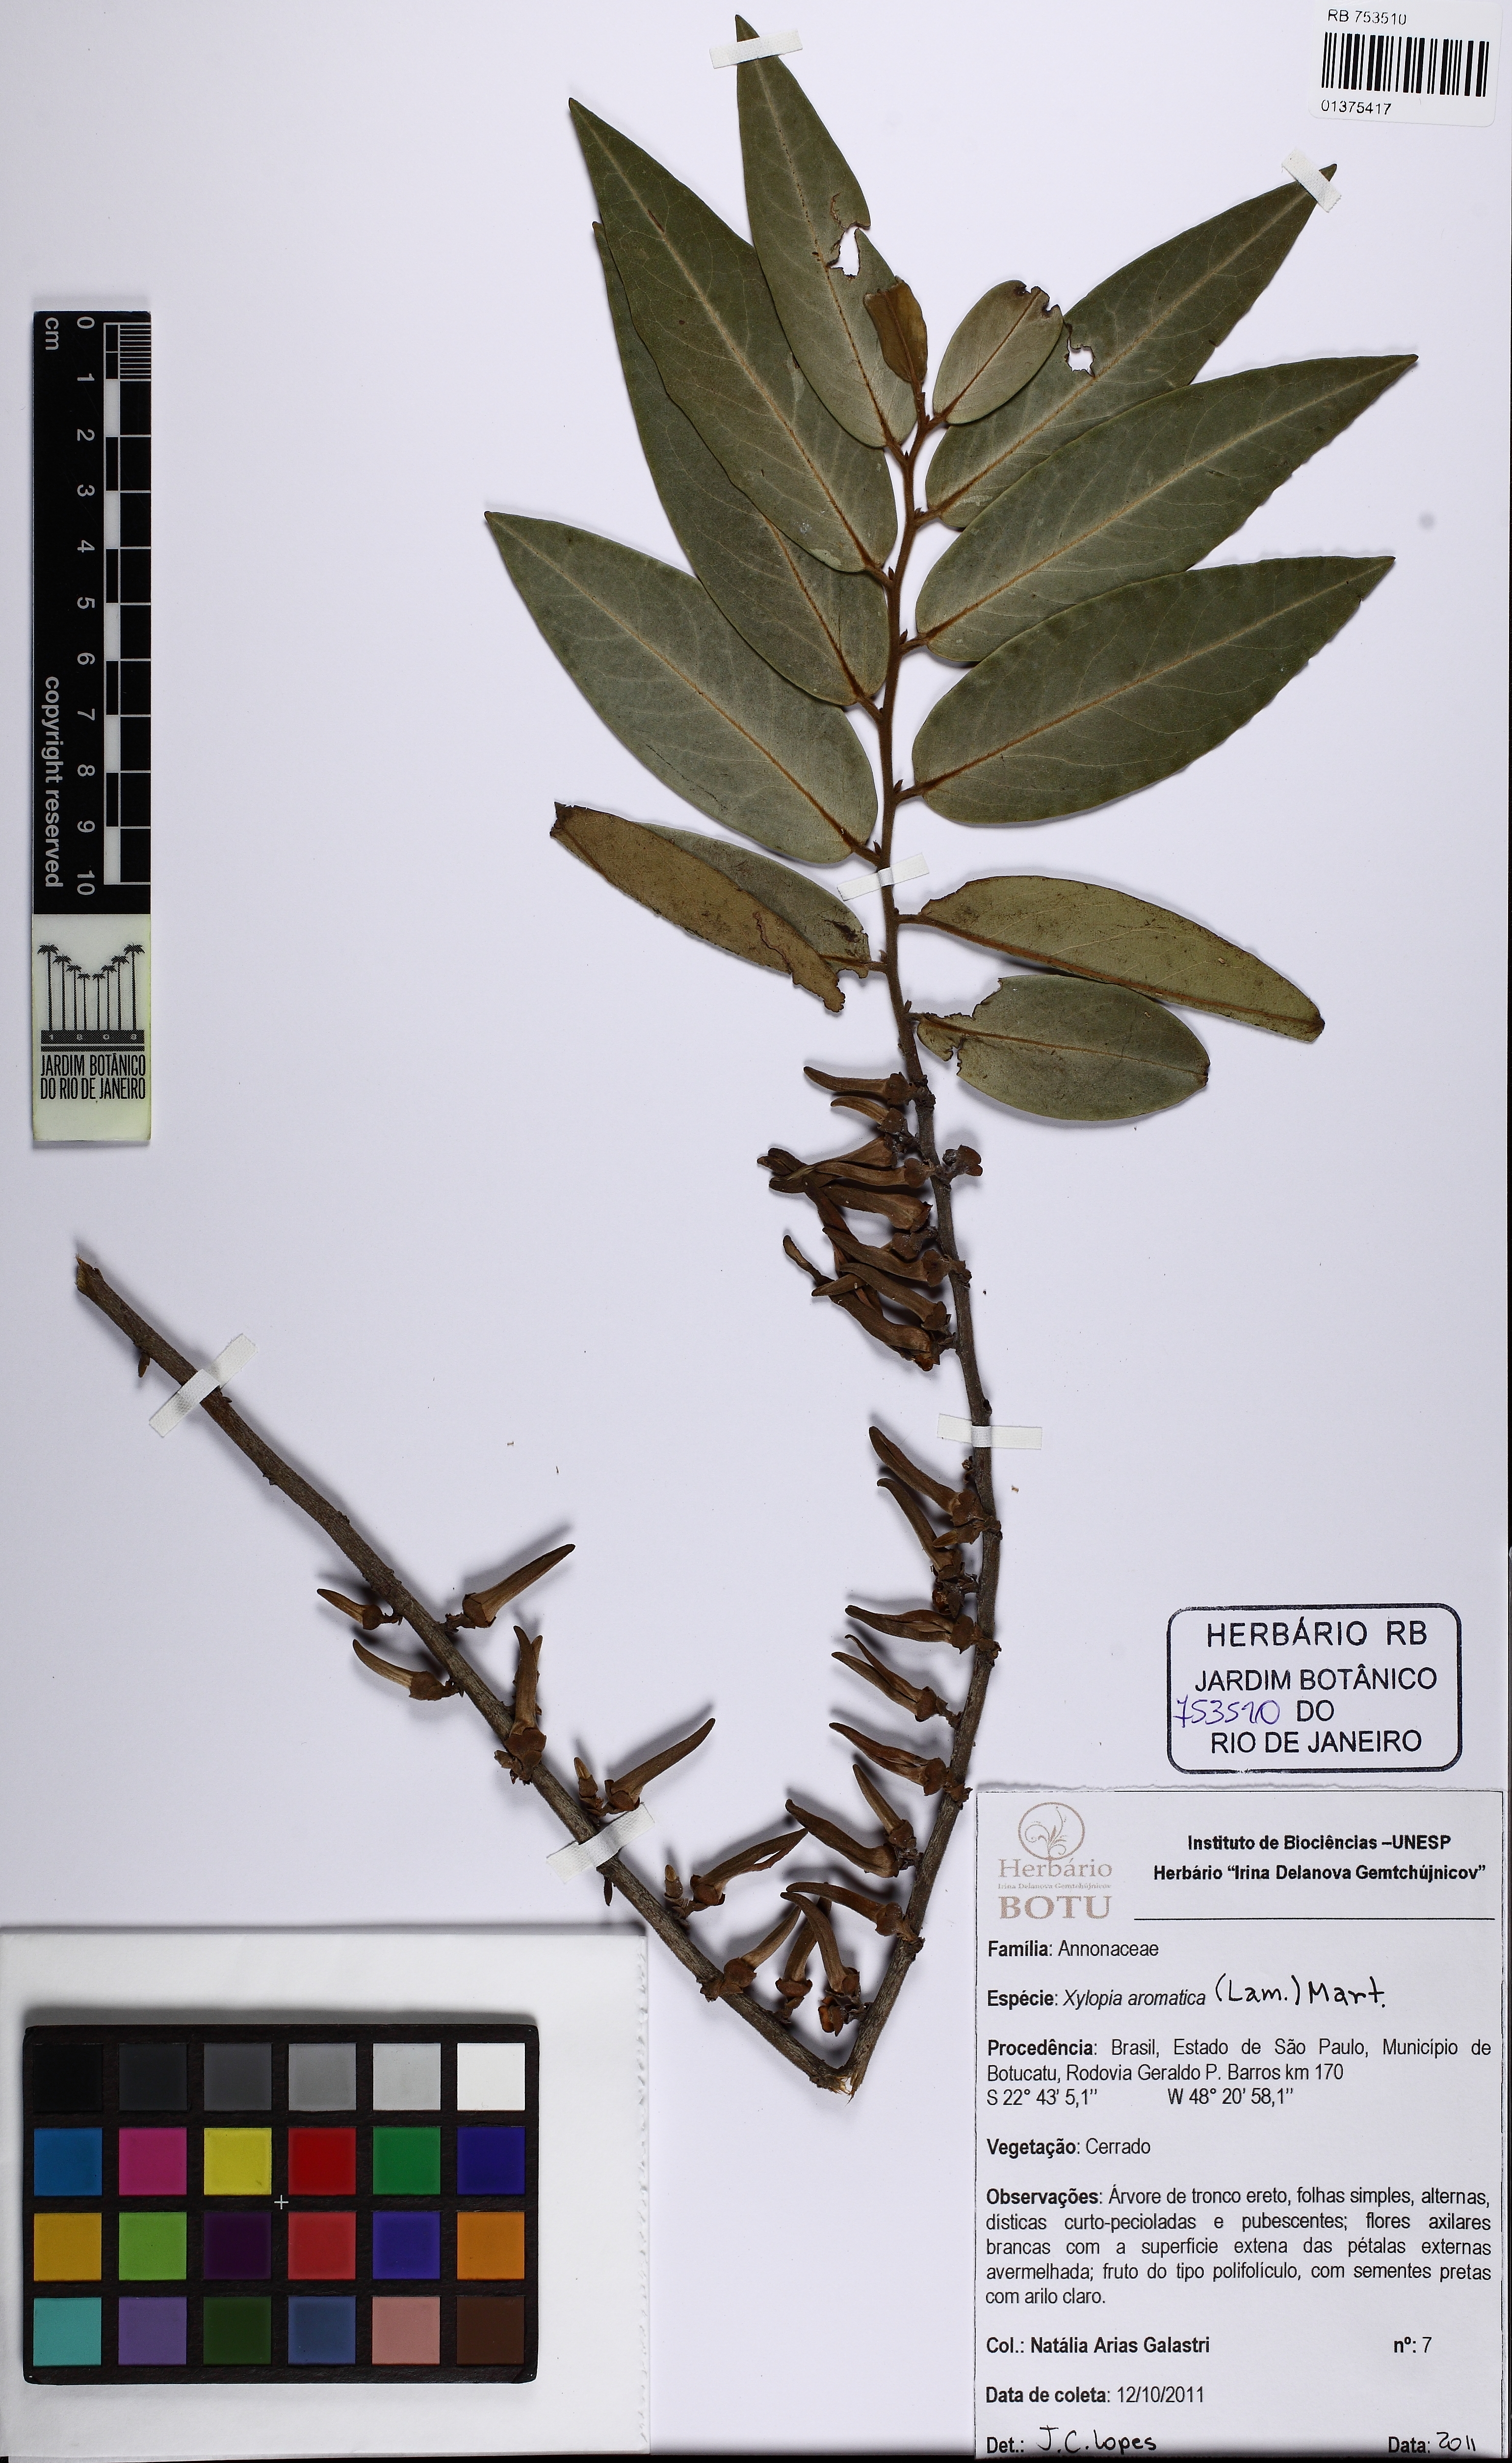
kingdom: Plantae
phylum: Tracheophyta
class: Magnoliopsida
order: Magnoliales
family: Annonaceae
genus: Xylopia
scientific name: Xylopia aromatica
